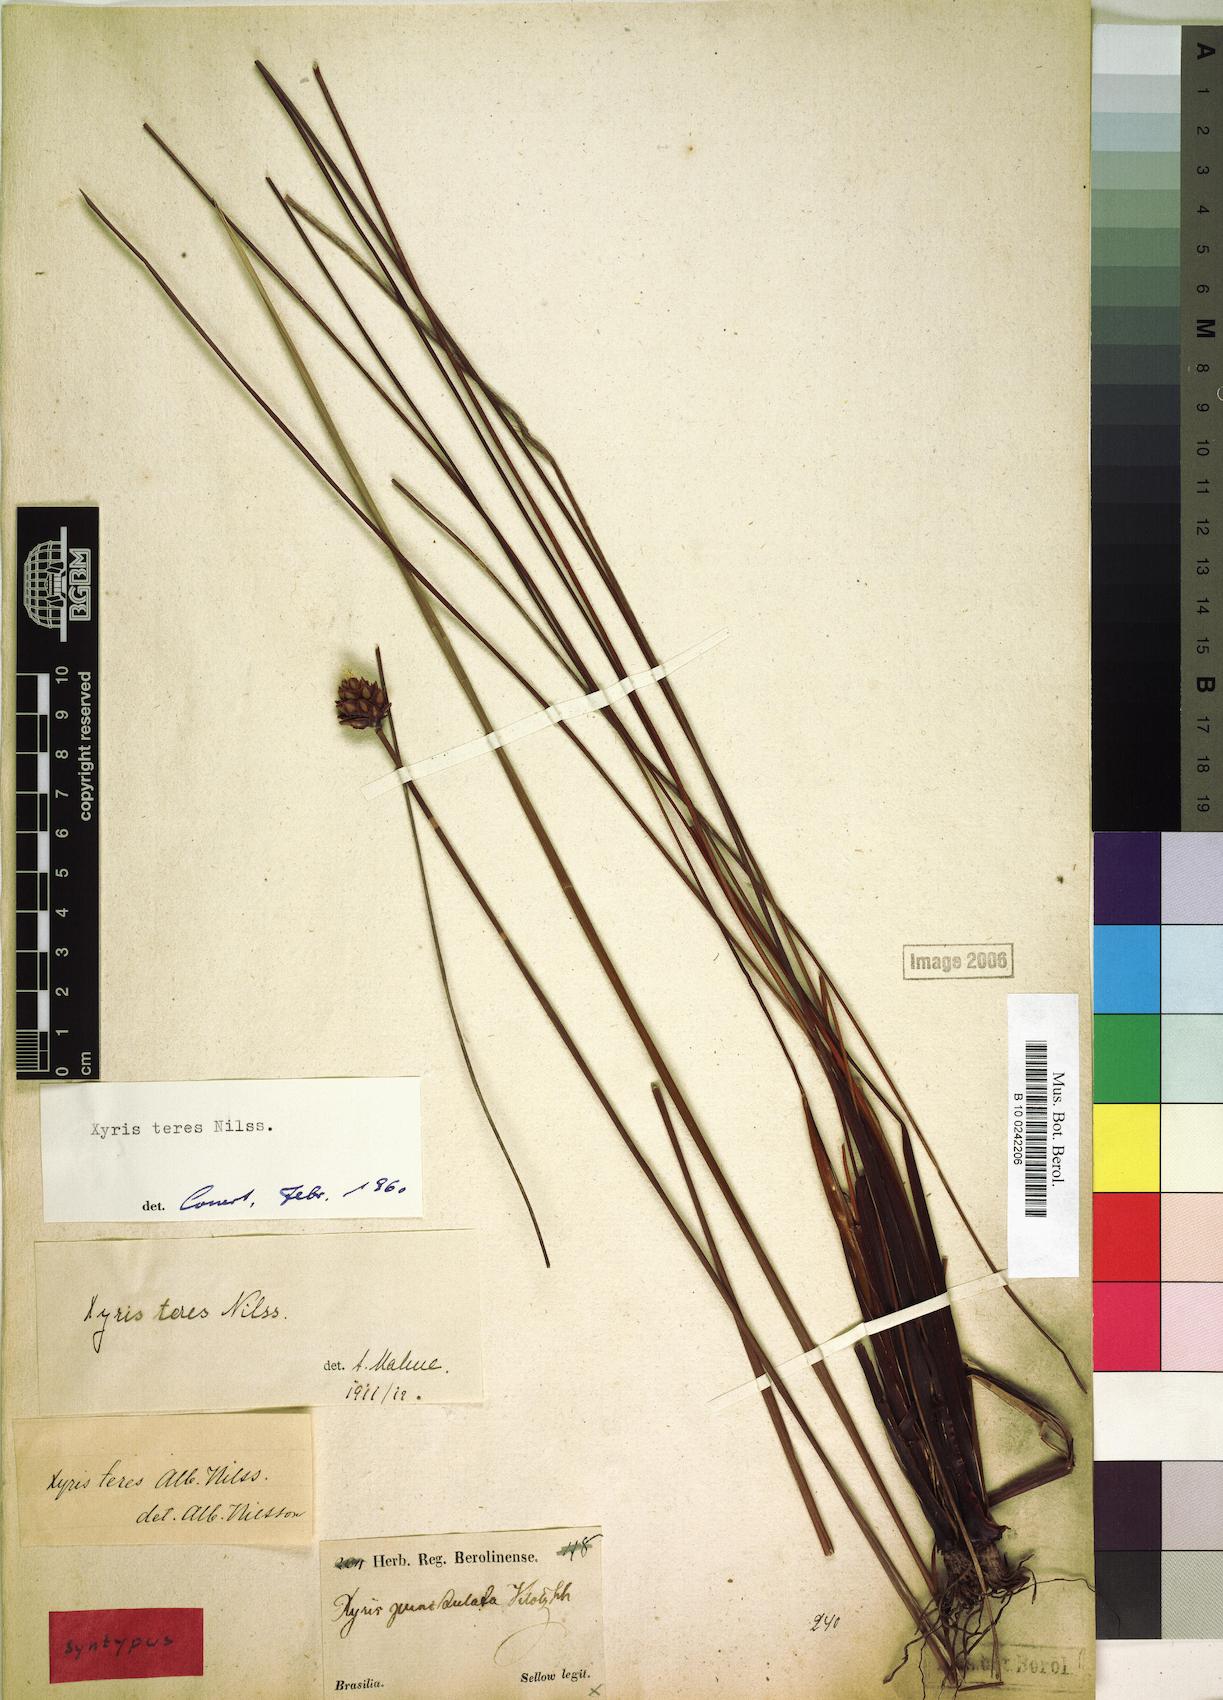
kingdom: Plantae
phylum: Tracheophyta
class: Liliopsida
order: Poales
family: Xyridaceae
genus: Xyris
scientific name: Xyris teres
